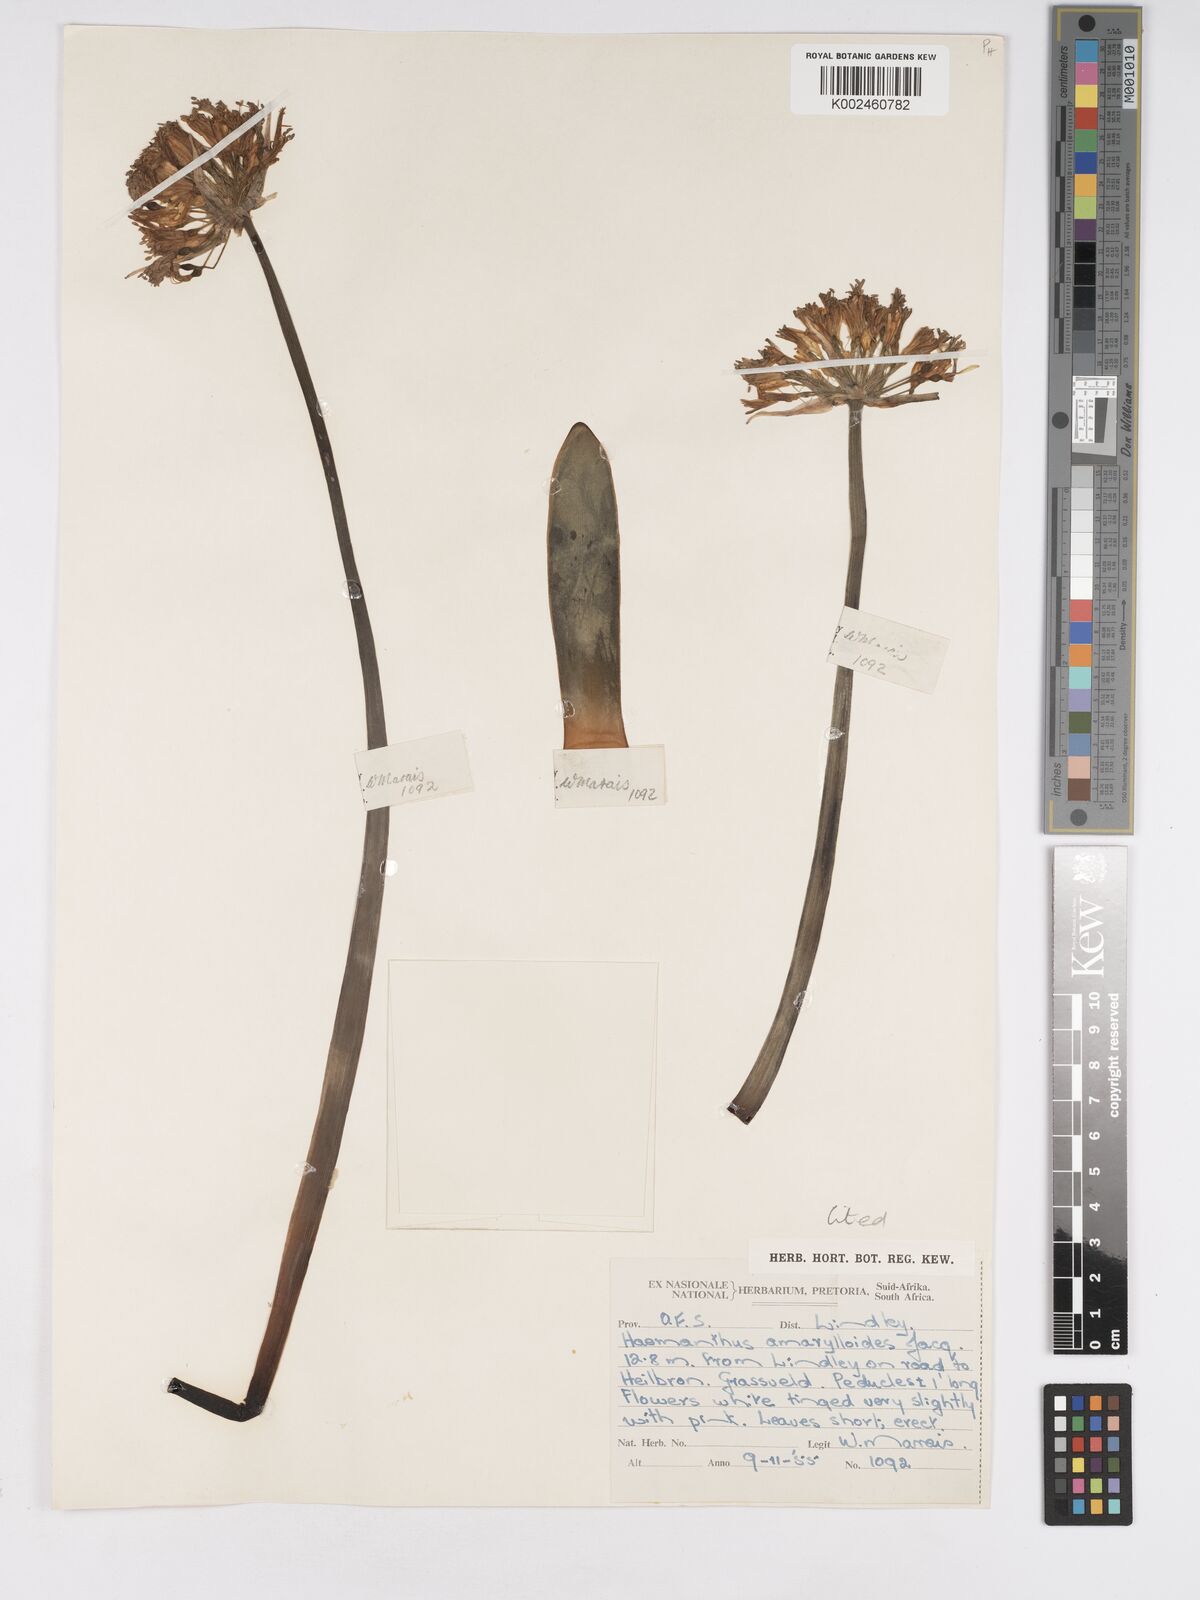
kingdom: Plantae
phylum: Tracheophyta
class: Liliopsida
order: Asparagales
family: Amaryllidaceae
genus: Haemanthus
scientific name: Haemanthus montanus
